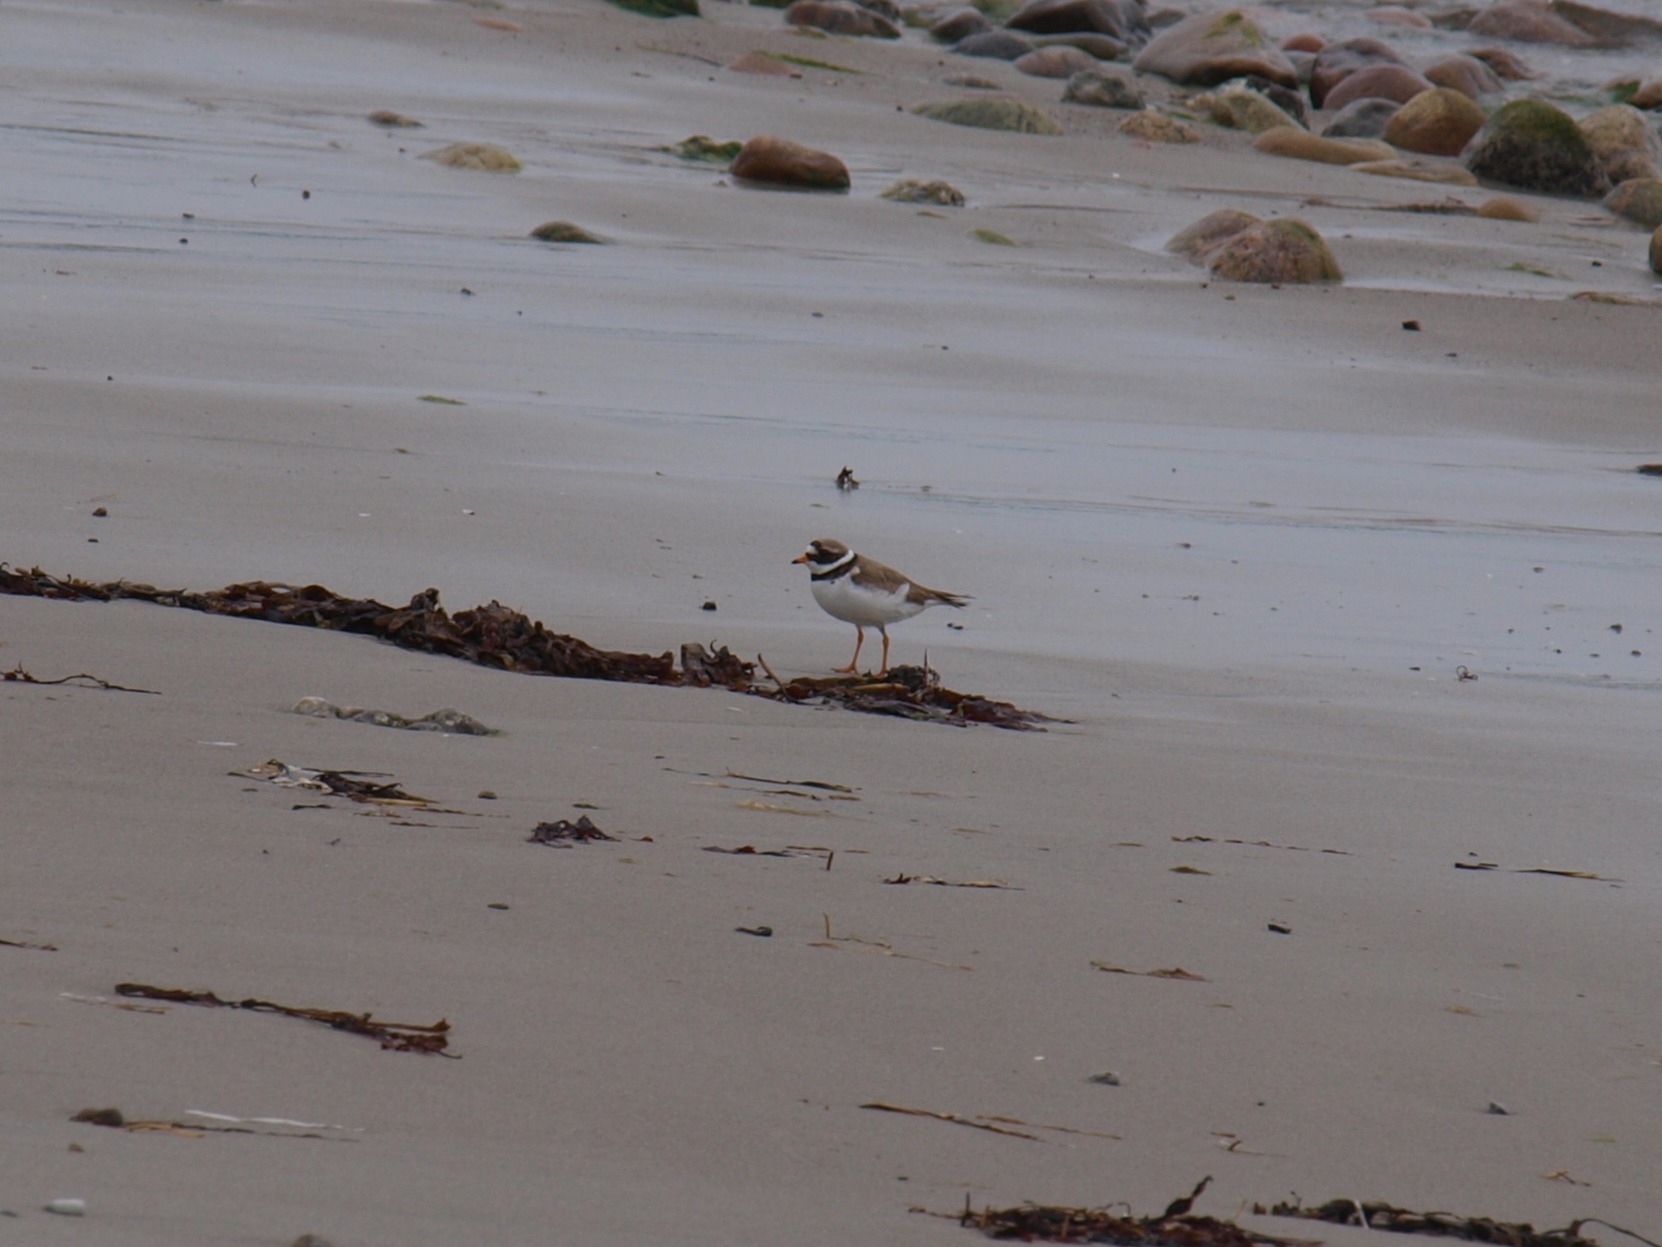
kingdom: Animalia
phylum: Chordata
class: Aves
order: Charadriiformes
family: Charadriidae
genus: Charadrius
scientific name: Charadrius hiaticula
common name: Stor præstekrave
